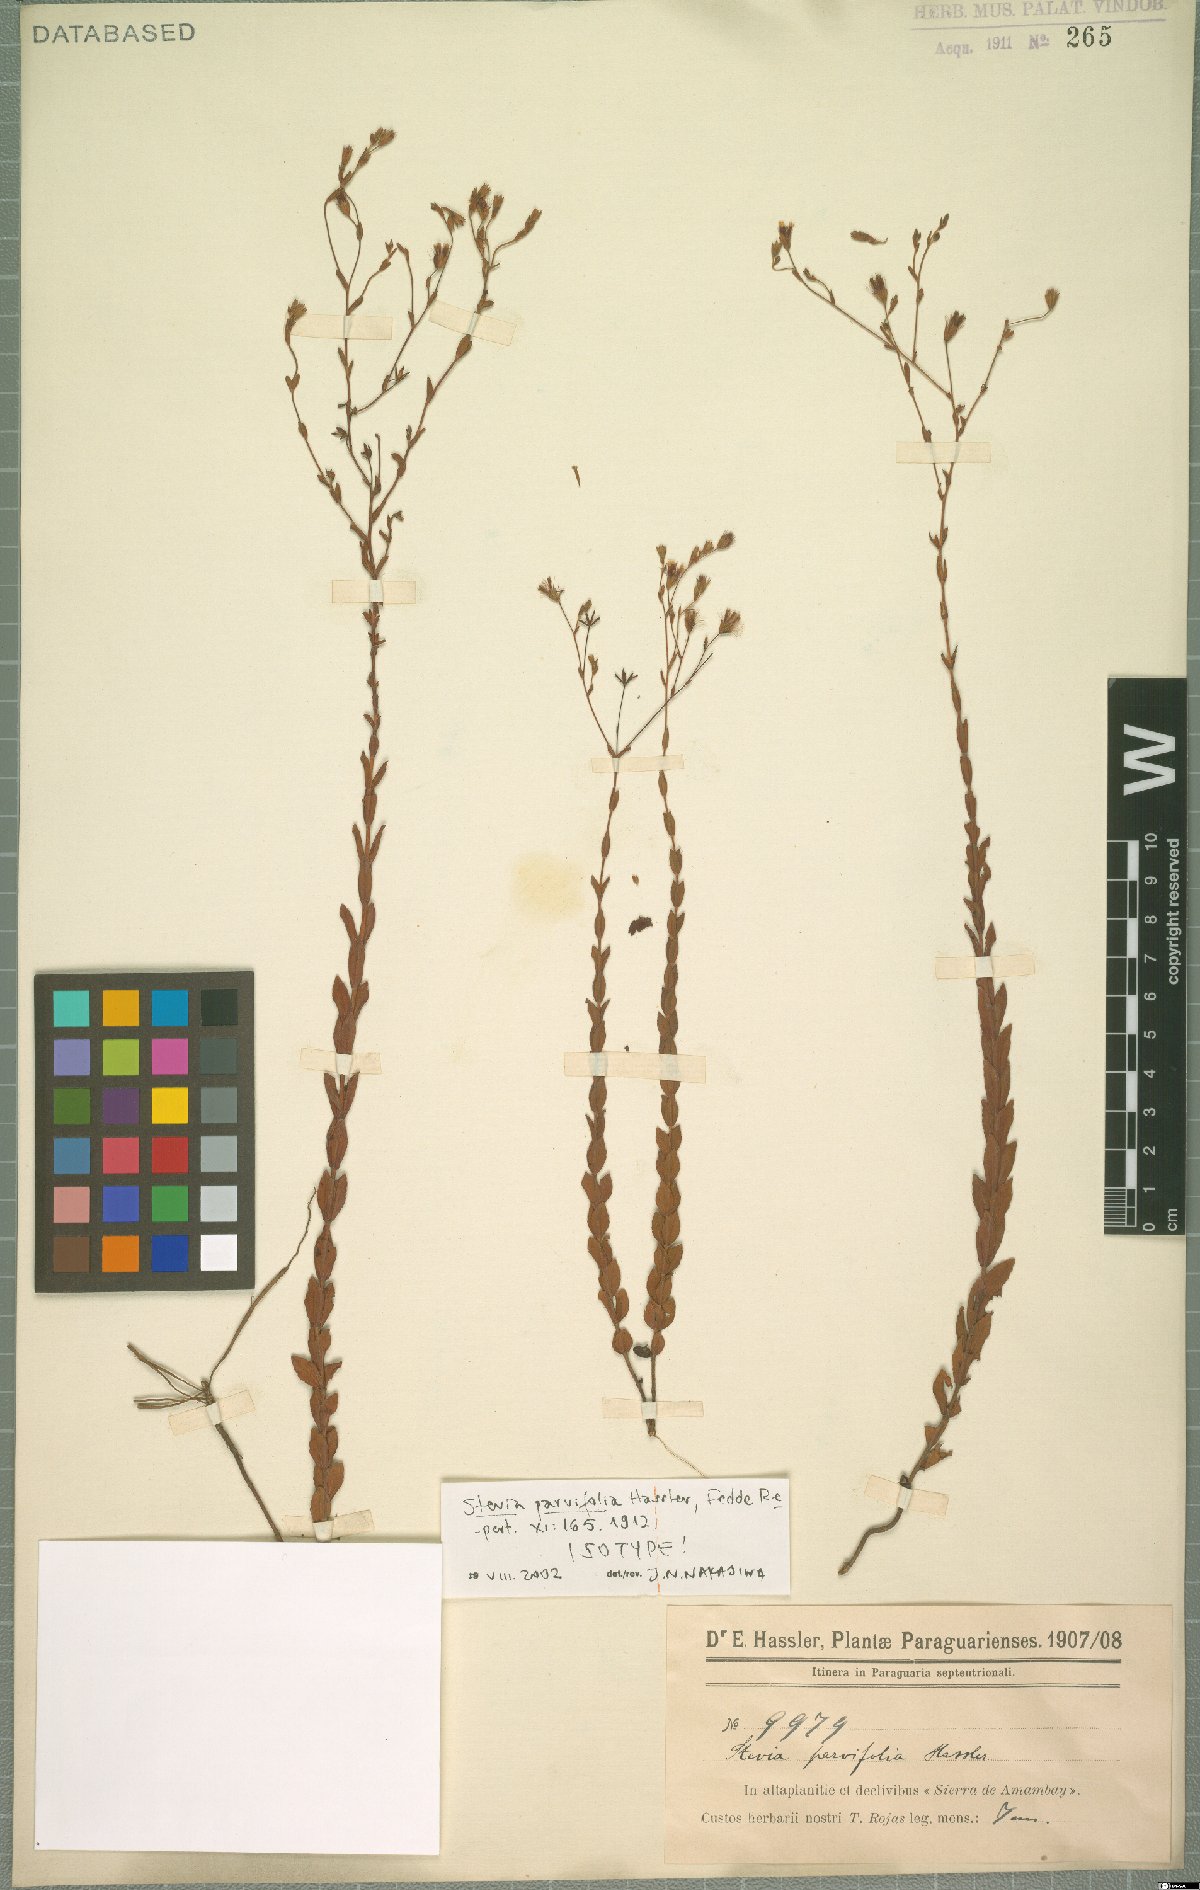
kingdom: Plantae
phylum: Tracheophyta
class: Magnoliopsida
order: Asterales
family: Asteraceae
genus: Stevia
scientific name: Stevia parvifolia
